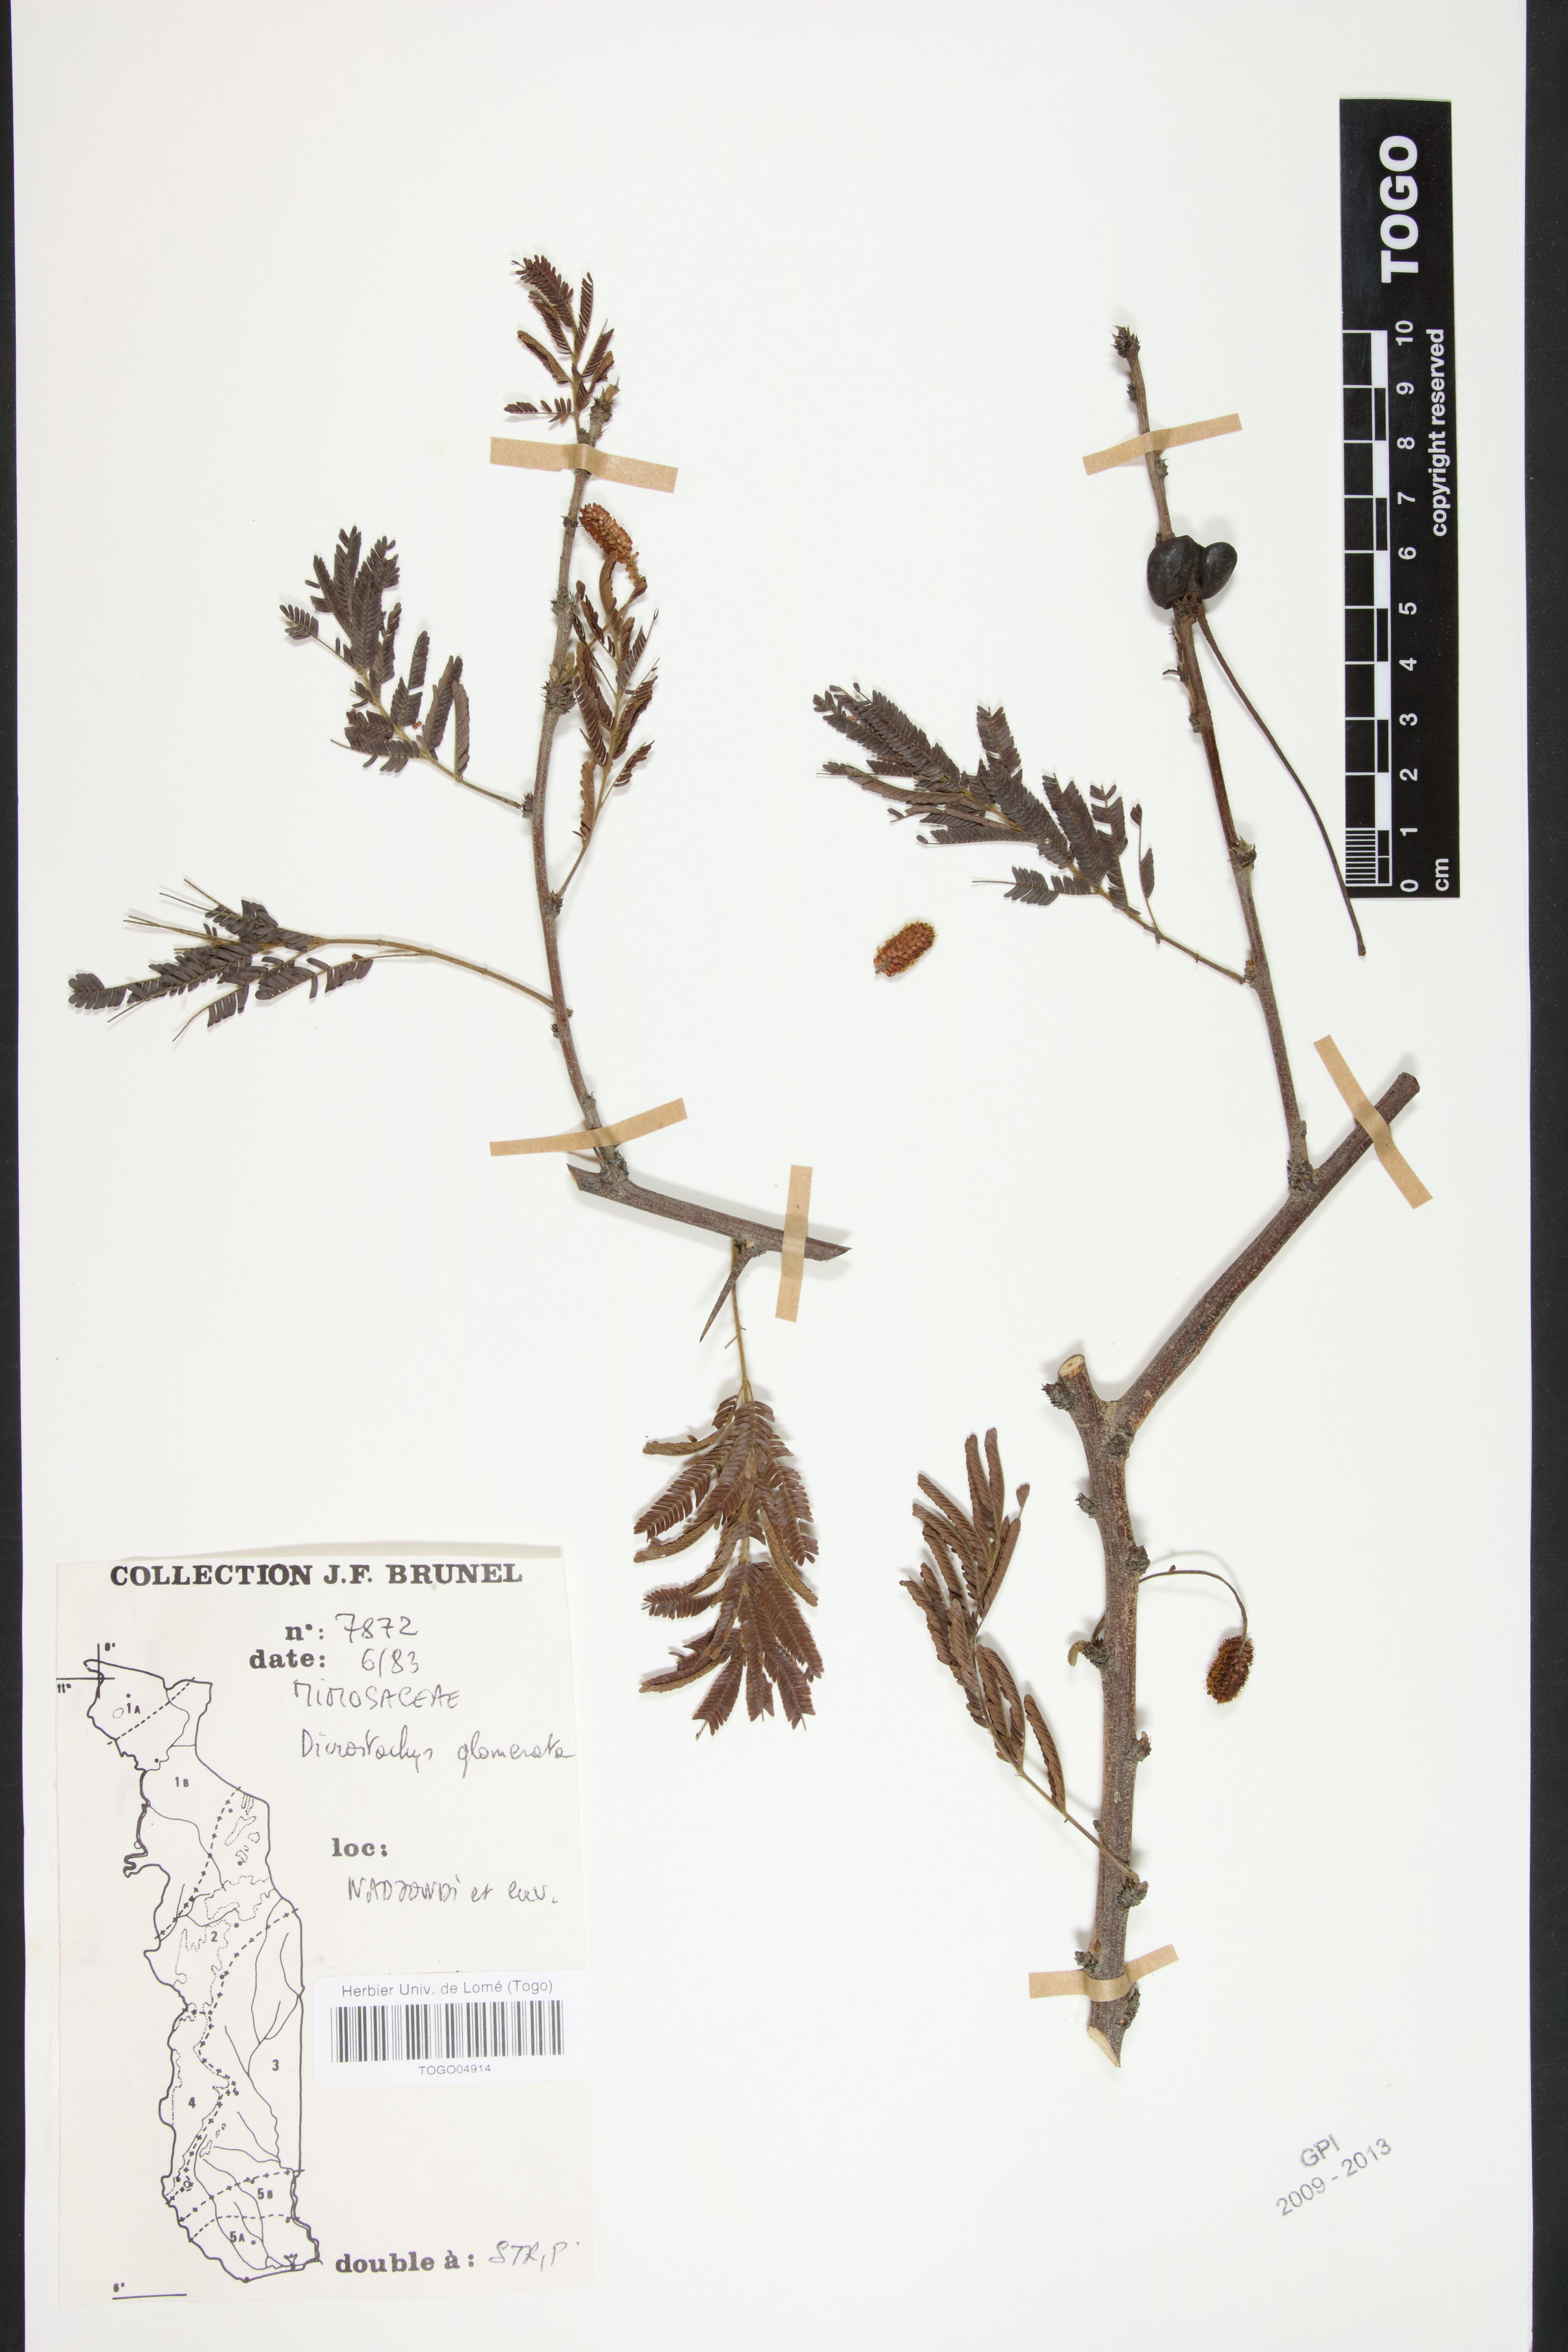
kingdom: Plantae
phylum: Tracheophyta
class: Magnoliopsida
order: Fabales
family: Fabaceae
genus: Dichrostachys
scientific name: Dichrostachys cinerea
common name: Sicklebush
